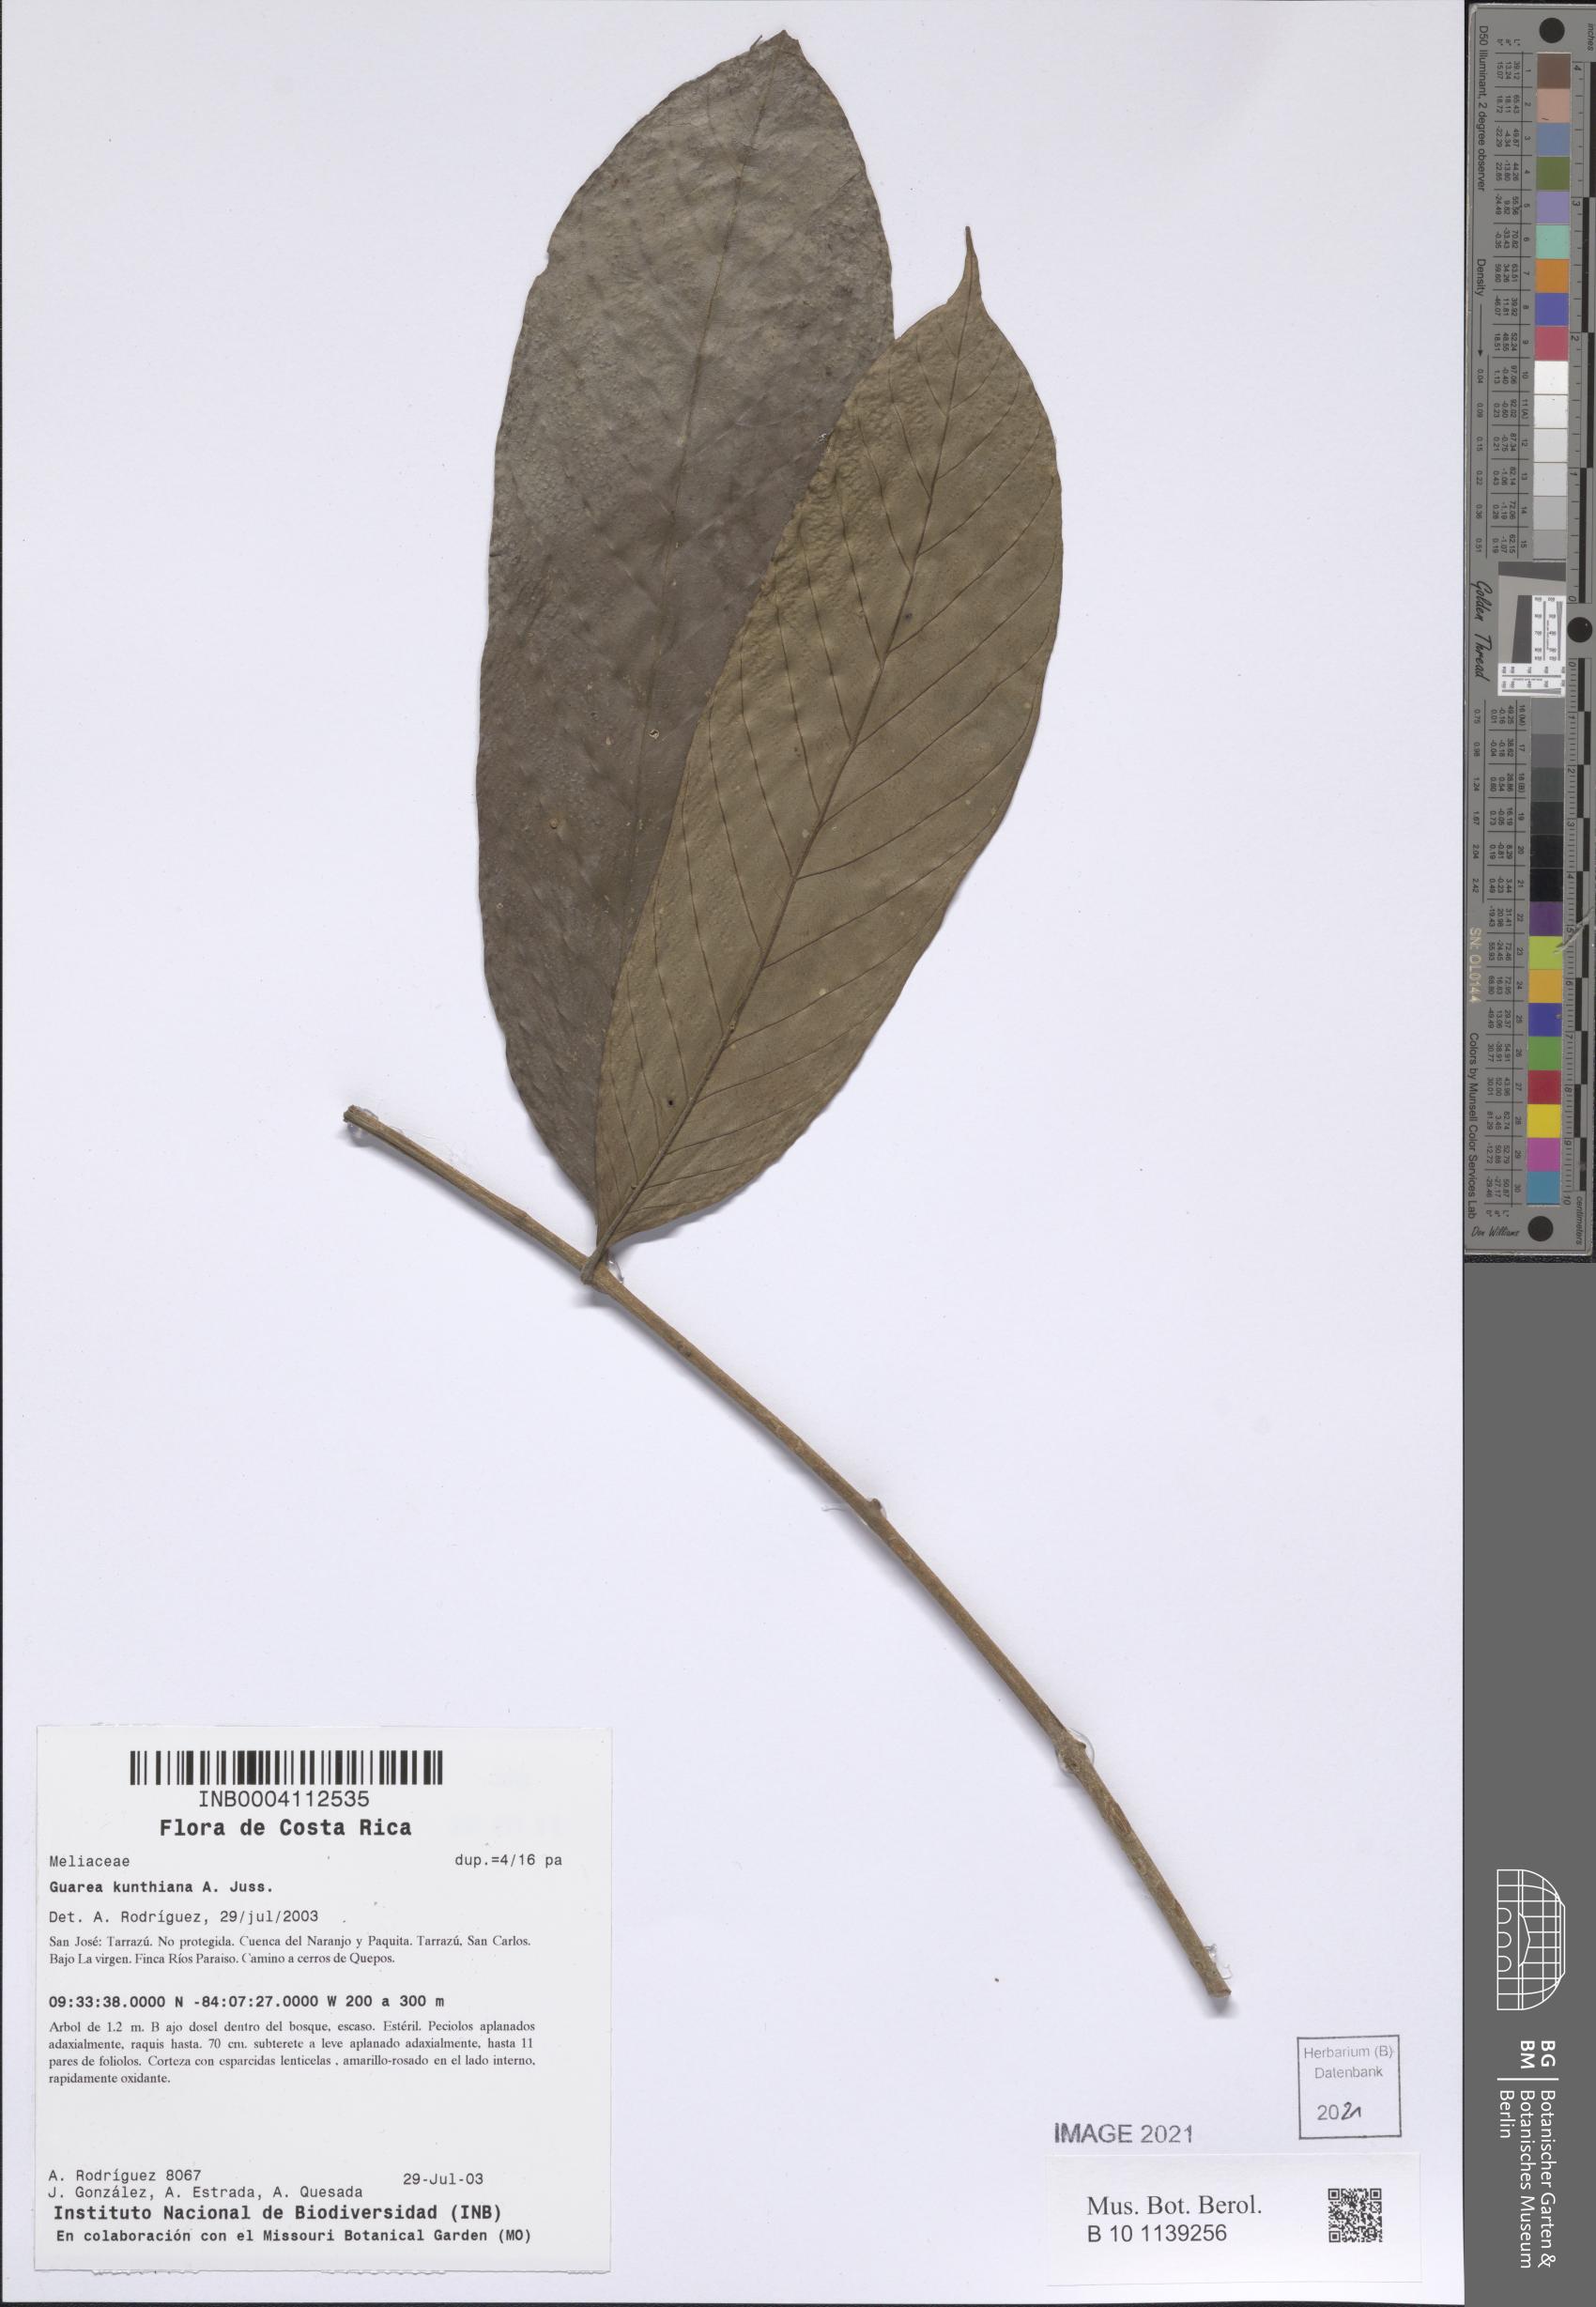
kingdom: Plantae
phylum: Tracheophyta
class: Magnoliopsida
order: Sapindales
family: Meliaceae
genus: Guarea
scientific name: Guarea kunthiana
